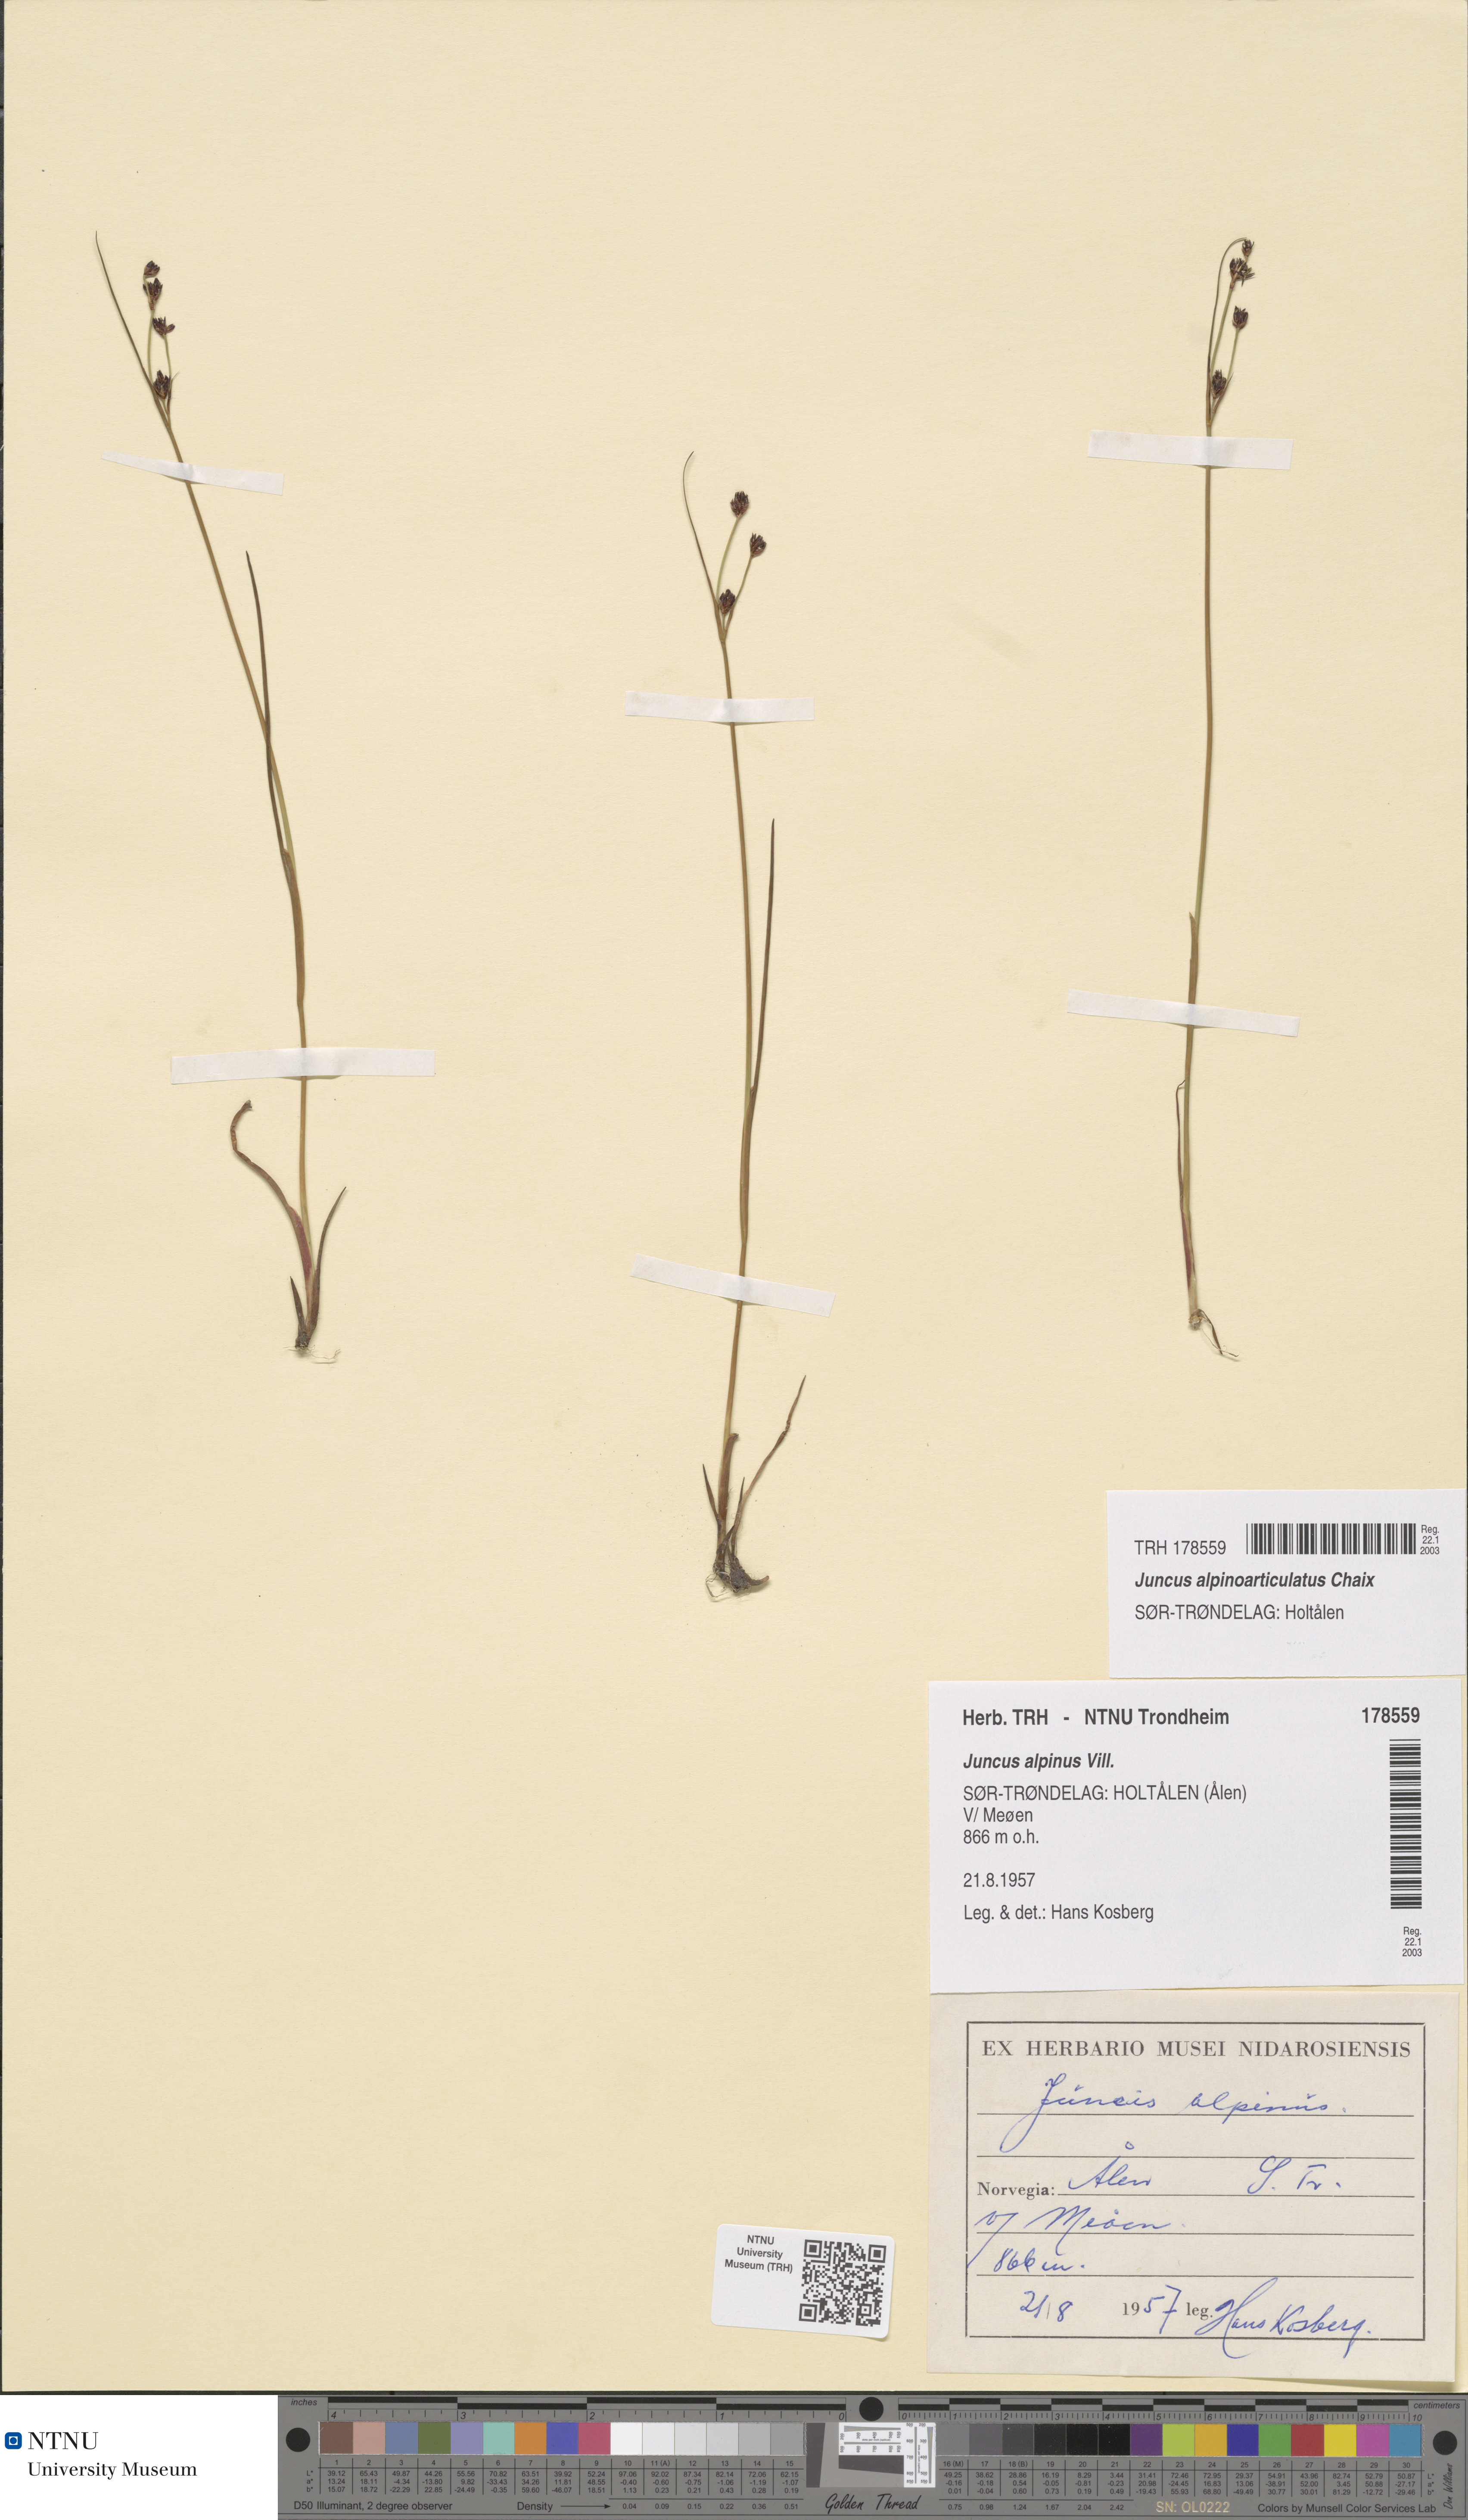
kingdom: Plantae
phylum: Tracheophyta
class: Liliopsida
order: Poales
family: Juncaceae
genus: Juncus
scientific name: Juncus alpinoarticulatus
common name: Alpine rush
